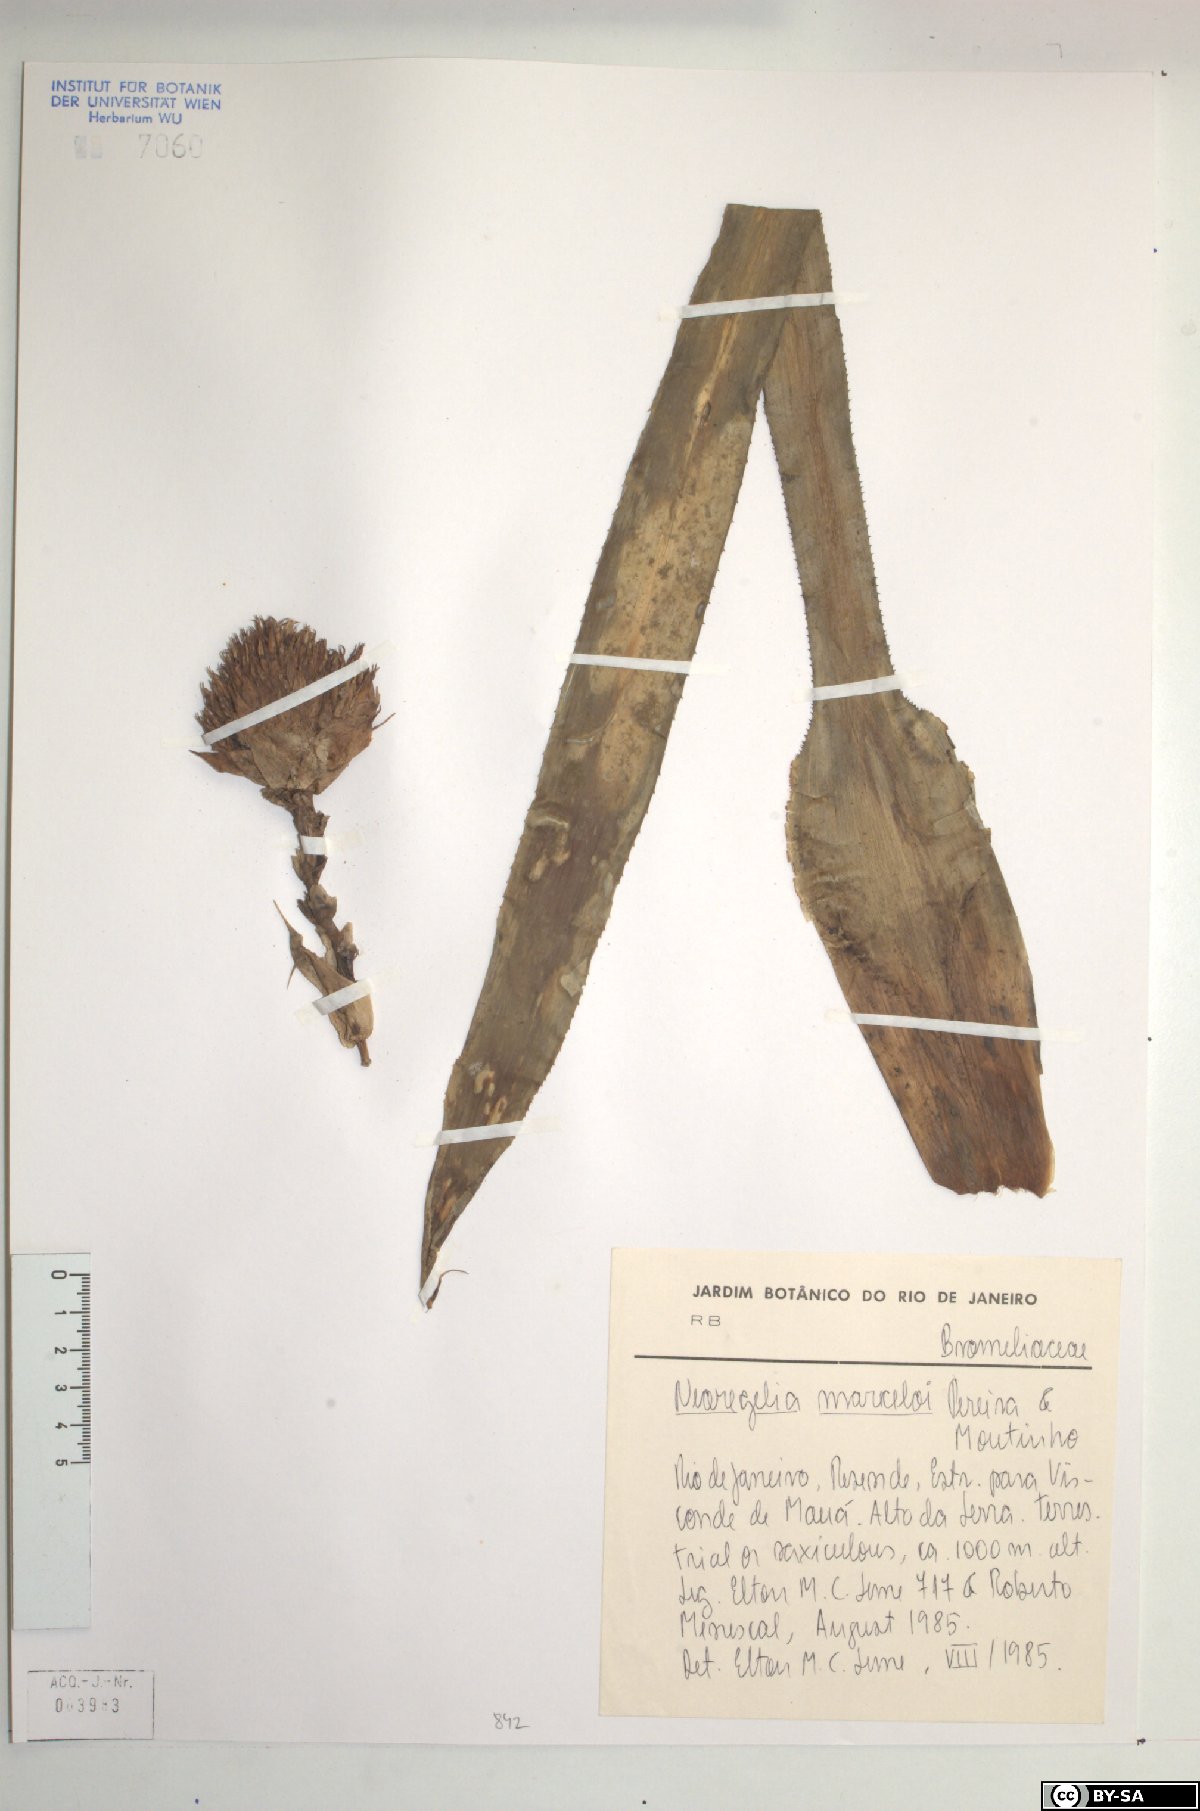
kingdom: Plantae
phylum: Tracheophyta
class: Liliopsida
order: Poales
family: Bromeliaceae
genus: Canistropsis
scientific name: Canistropsis marceloi
